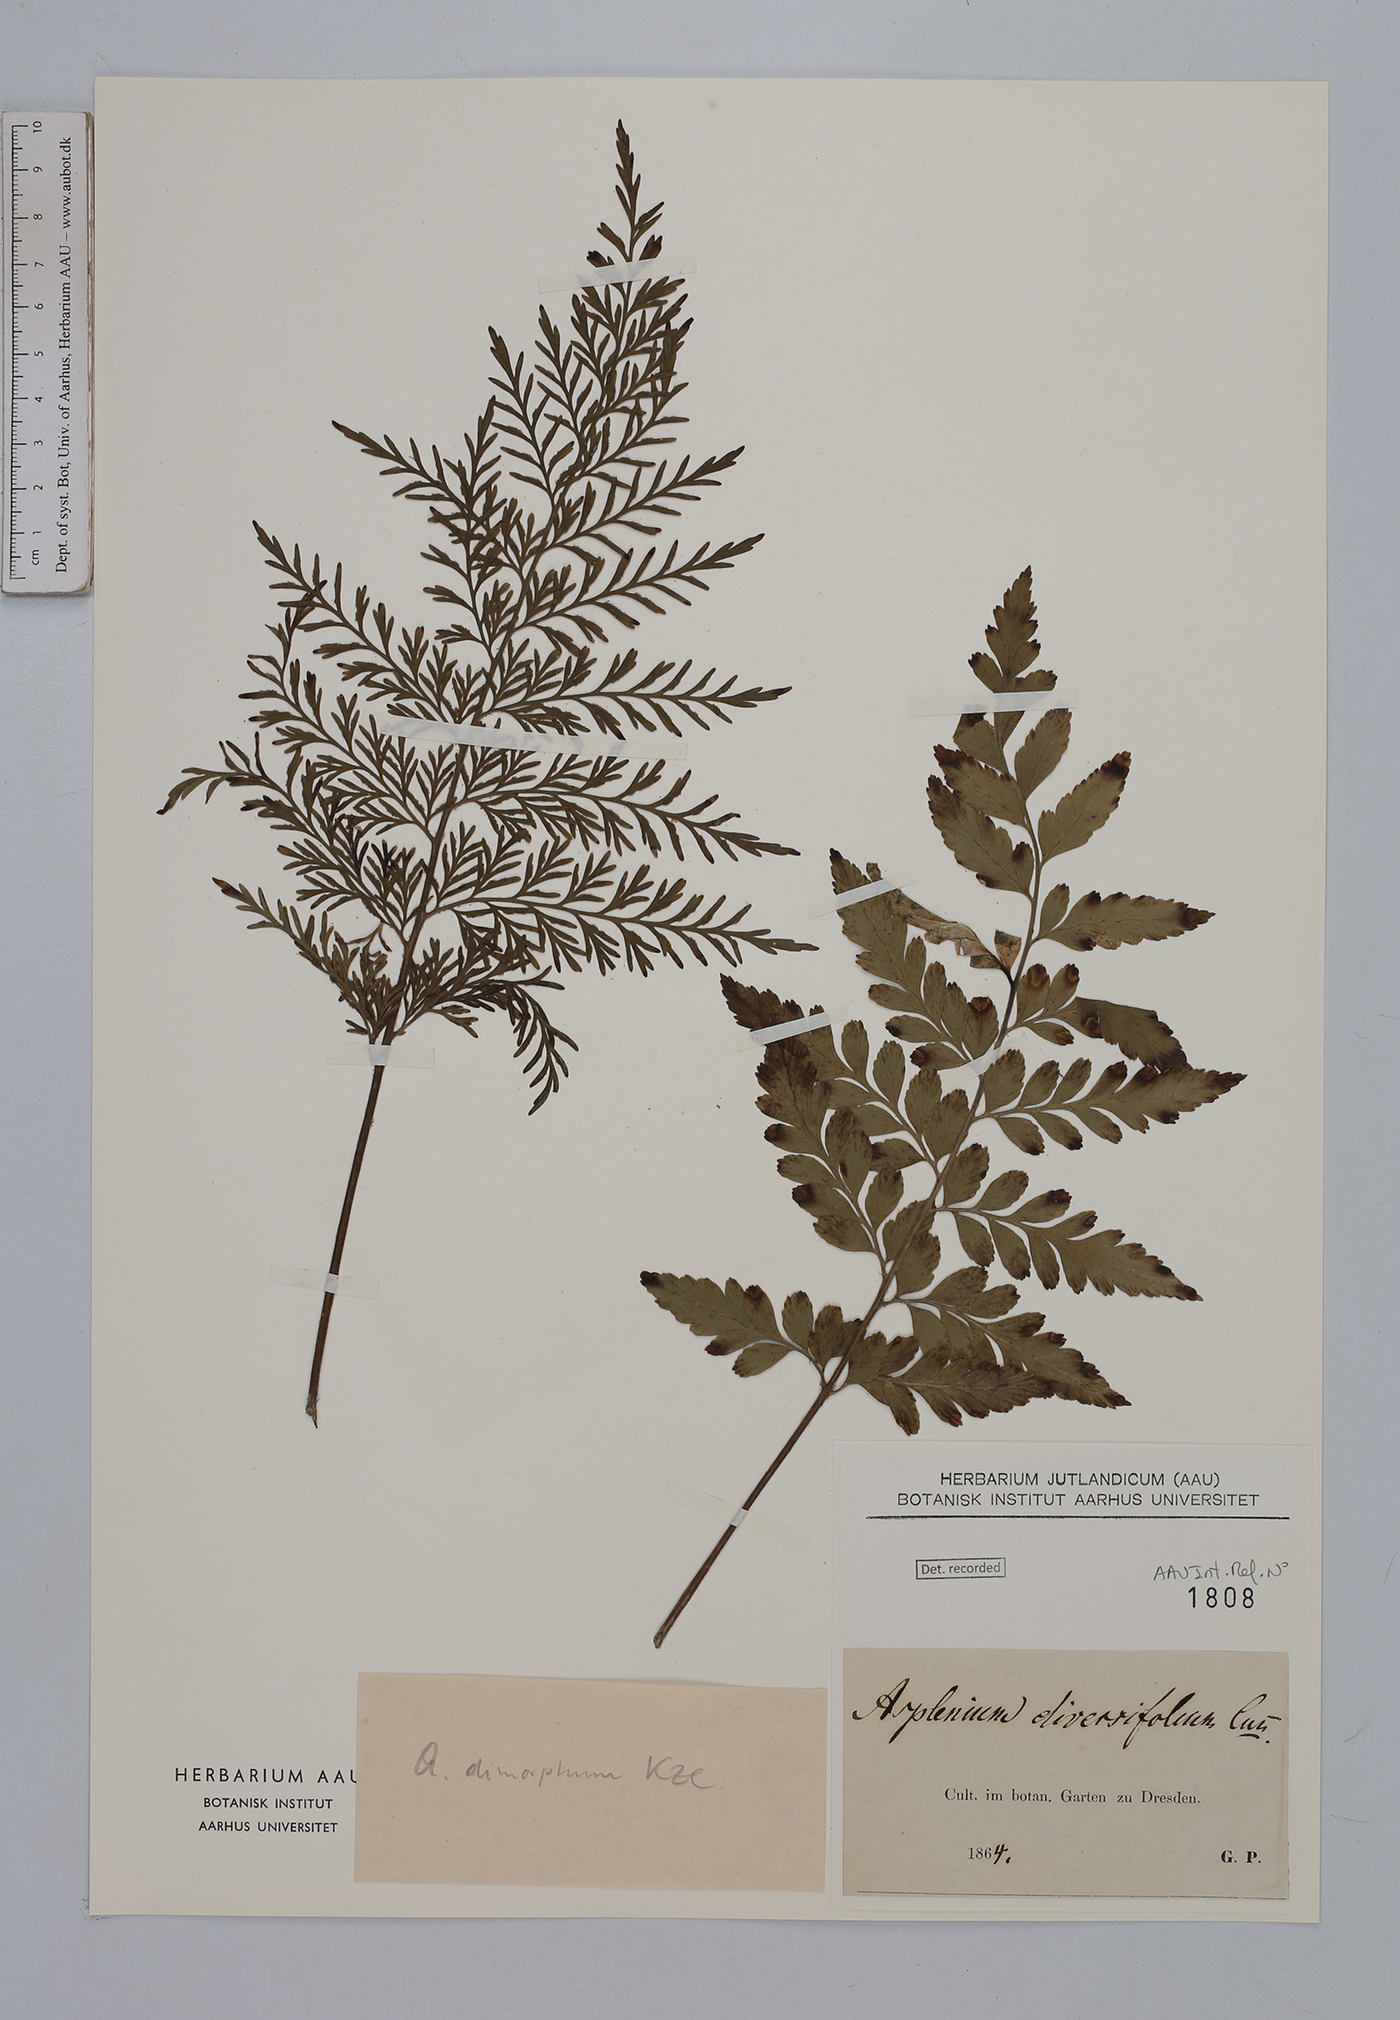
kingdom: Plantae
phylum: Tracheophyta
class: Polypodiopsida
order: Polypodiales
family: Aspleniaceae
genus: Asplenium
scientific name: Asplenium dimorphum
